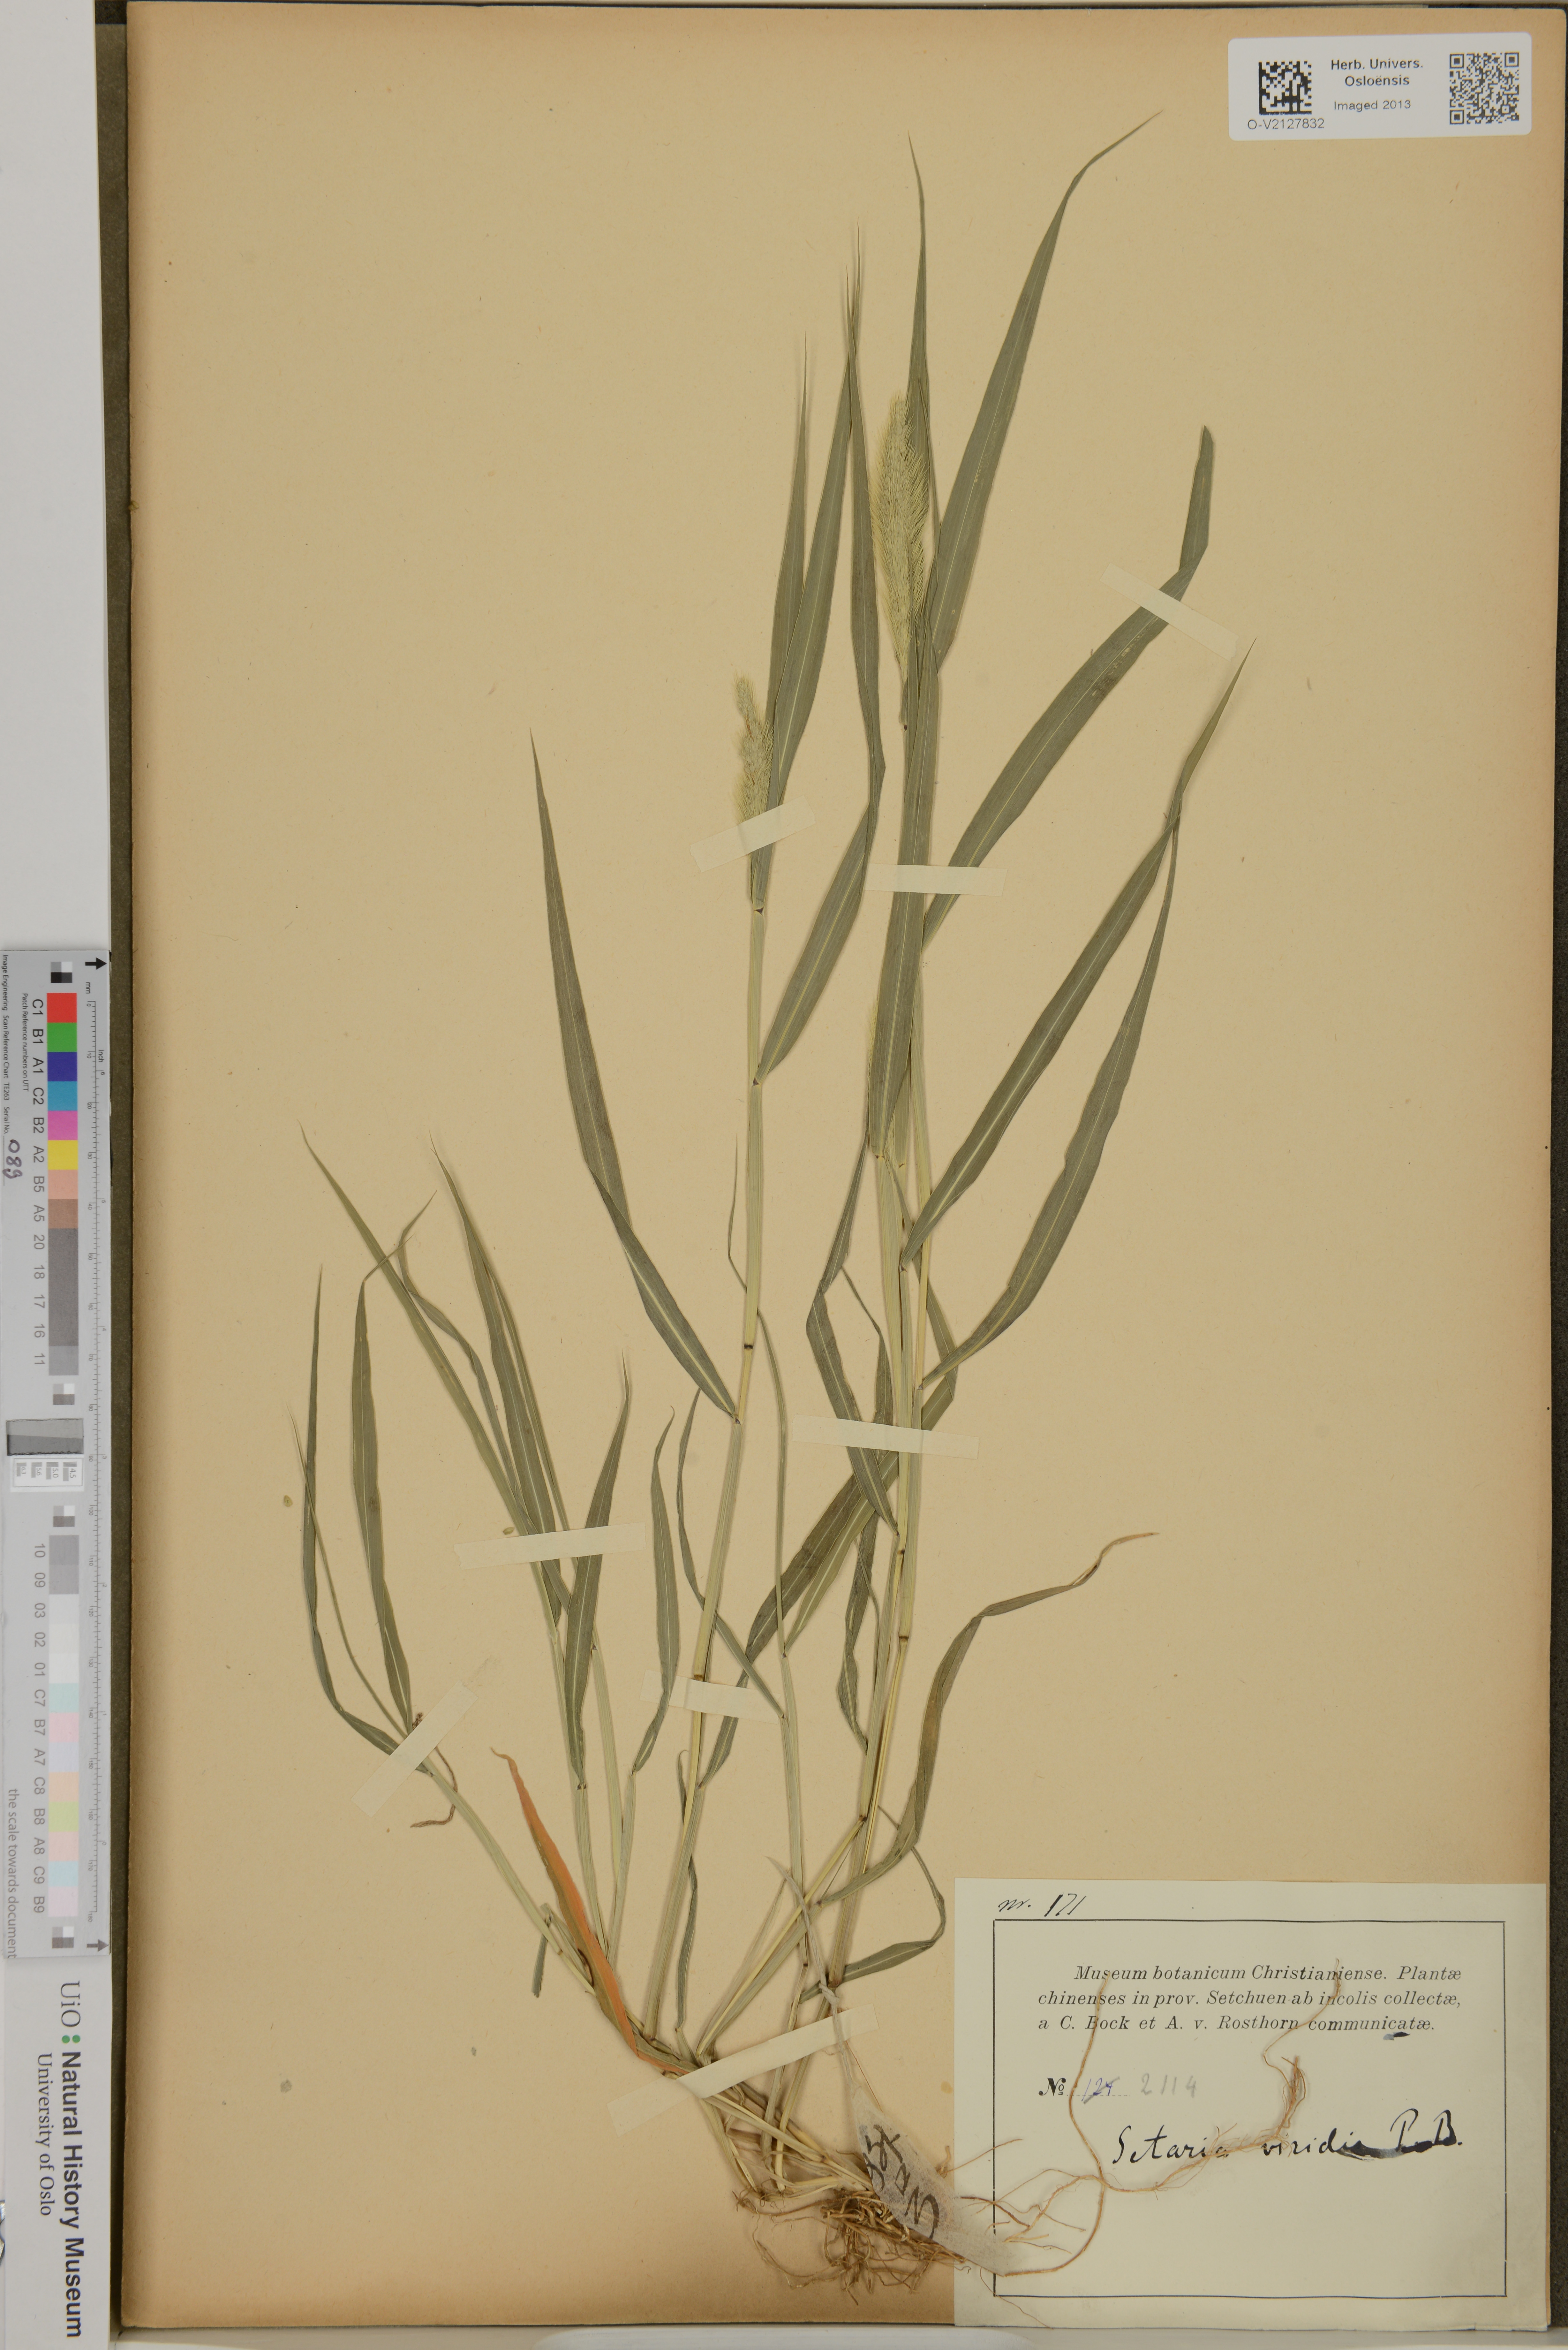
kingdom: Plantae
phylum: Tracheophyta
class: Liliopsida
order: Poales
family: Poaceae
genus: Setaria
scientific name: Setaria viridis
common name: Green bristlegrass
